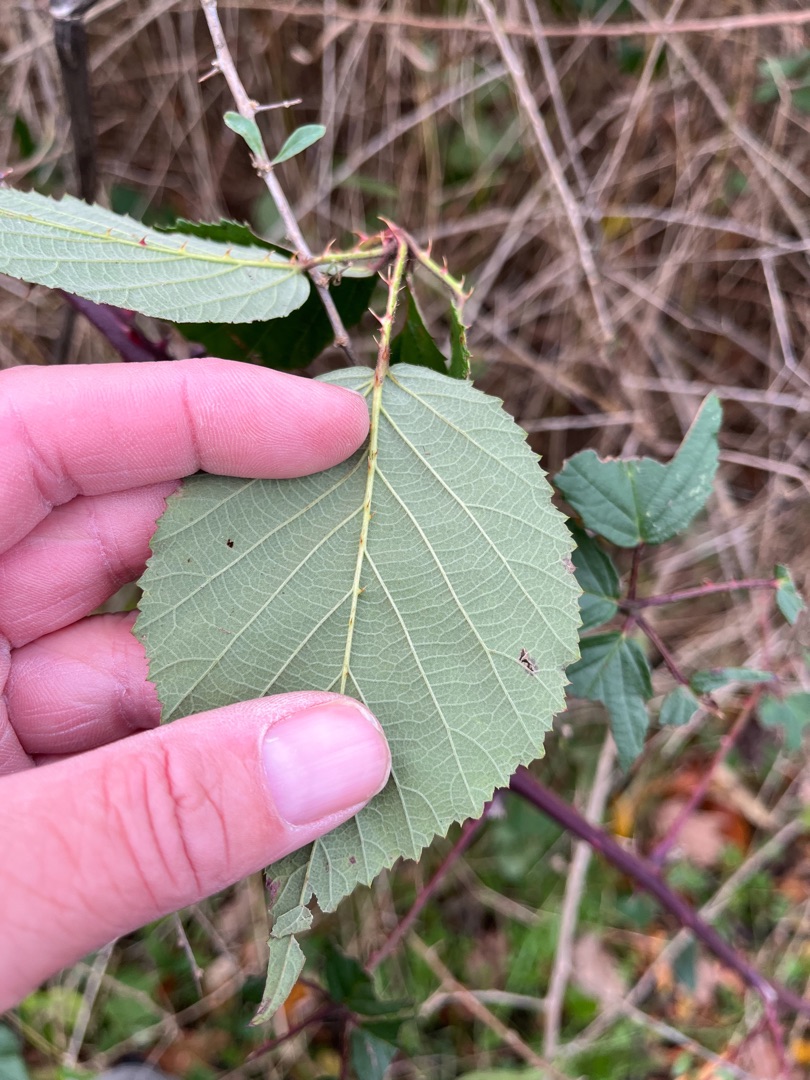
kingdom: Plantae
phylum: Tracheophyta
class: Magnoliopsida
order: Rosales
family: Rosaceae
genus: Rubus
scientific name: Rubus radula
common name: Rasperu brombær
